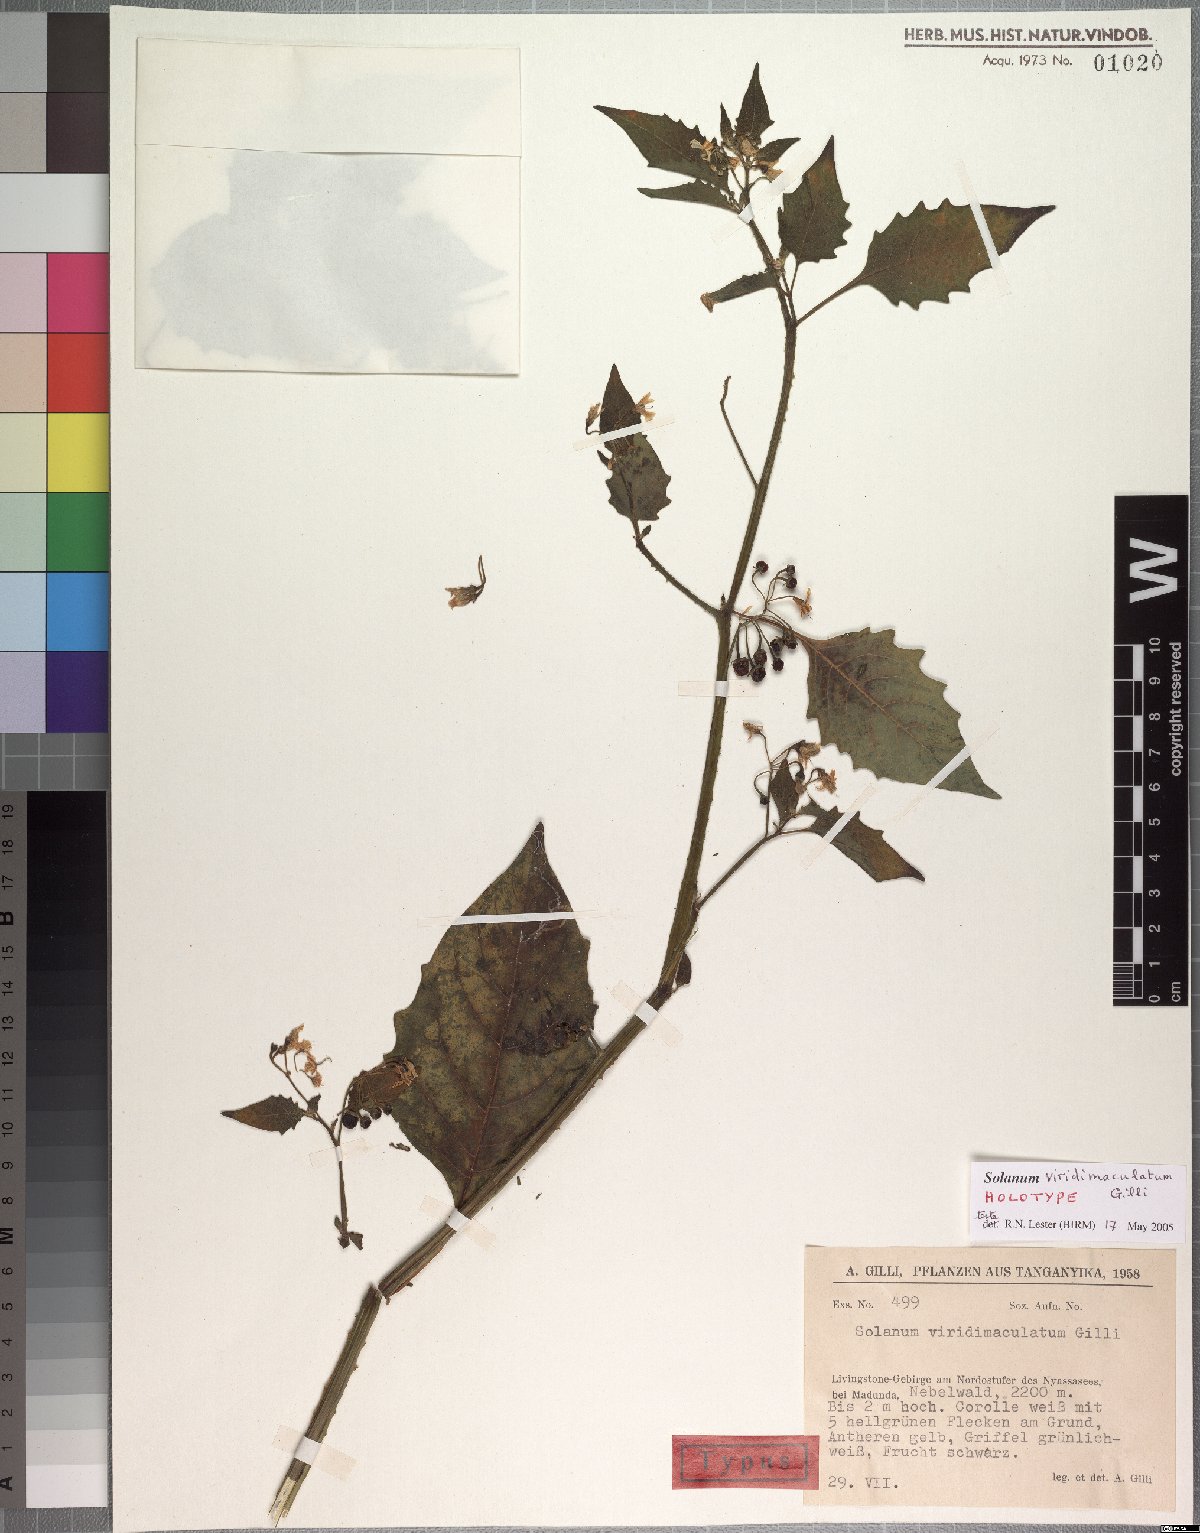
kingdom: Plantae
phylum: Tracheophyta
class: Magnoliopsida
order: Solanales
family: Solanaceae
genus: Solanum
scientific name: Solanum tarderemotum
